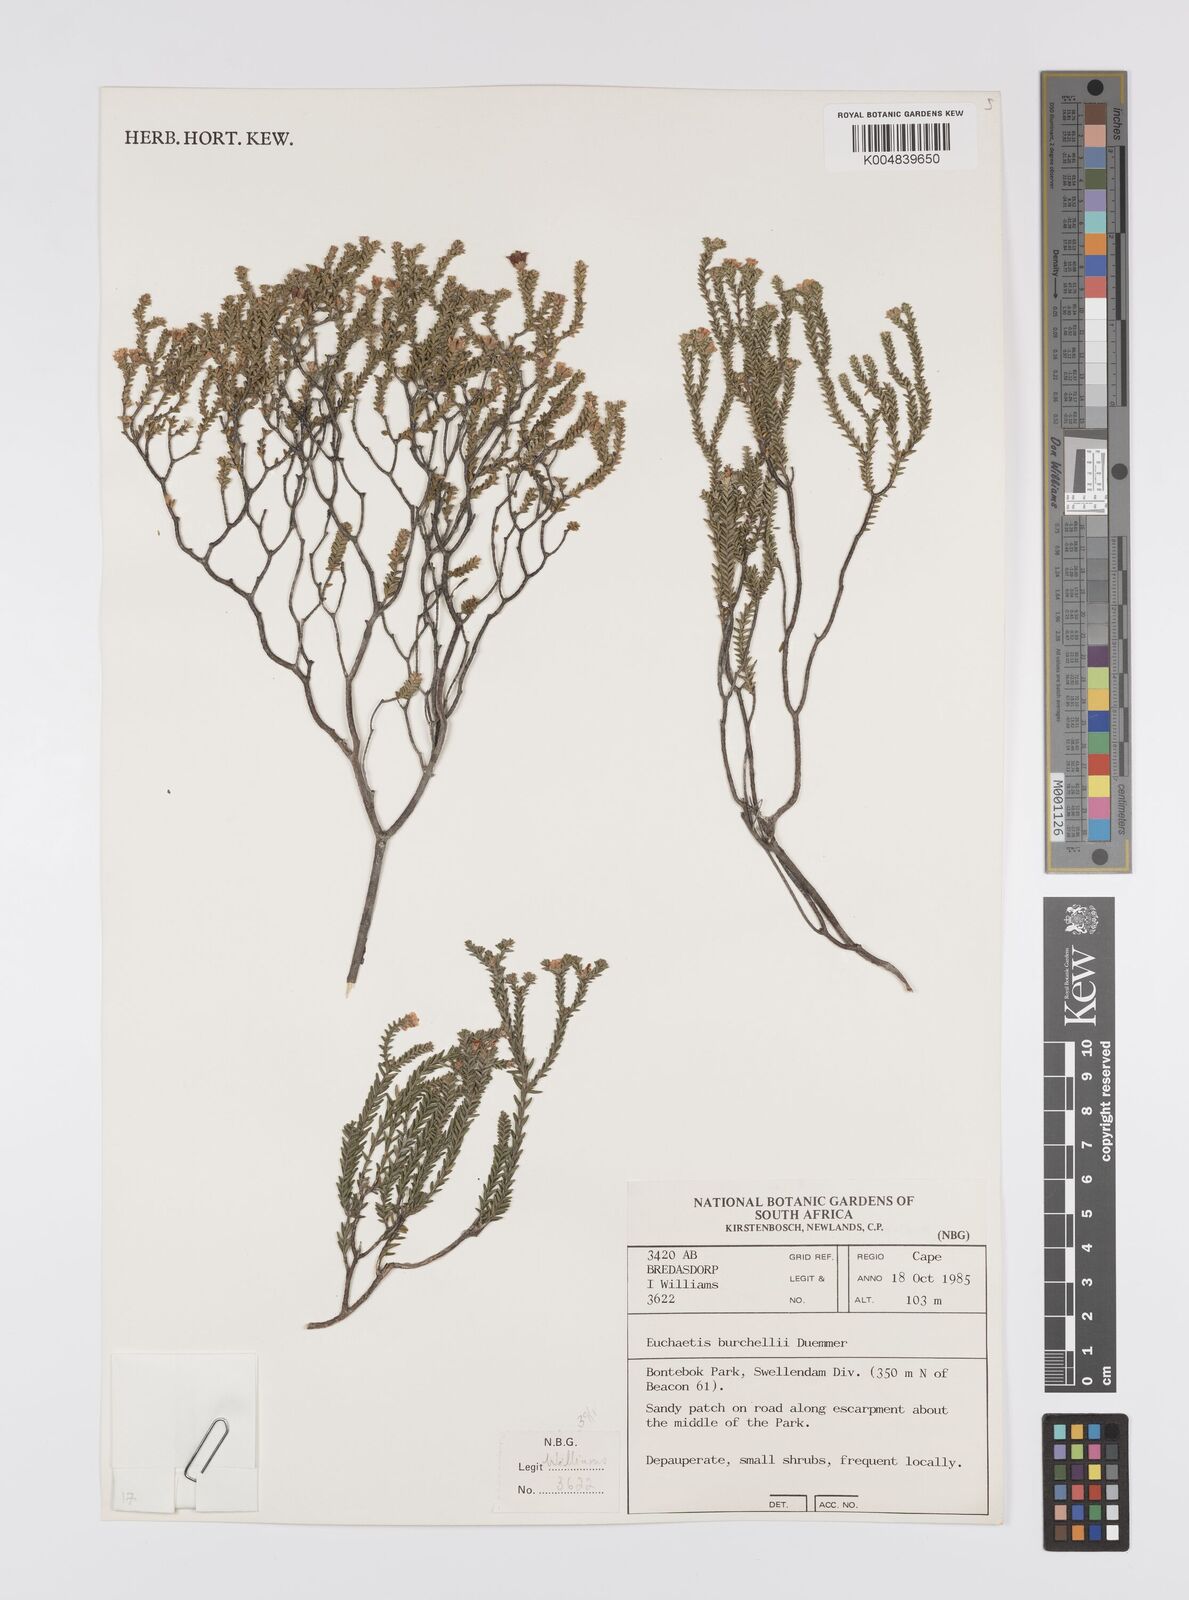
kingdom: Plantae
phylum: Tracheophyta
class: Magnoliopsida
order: Sapindales
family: Rutaceae
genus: Euchaetis
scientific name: Euchaetis burchellii
